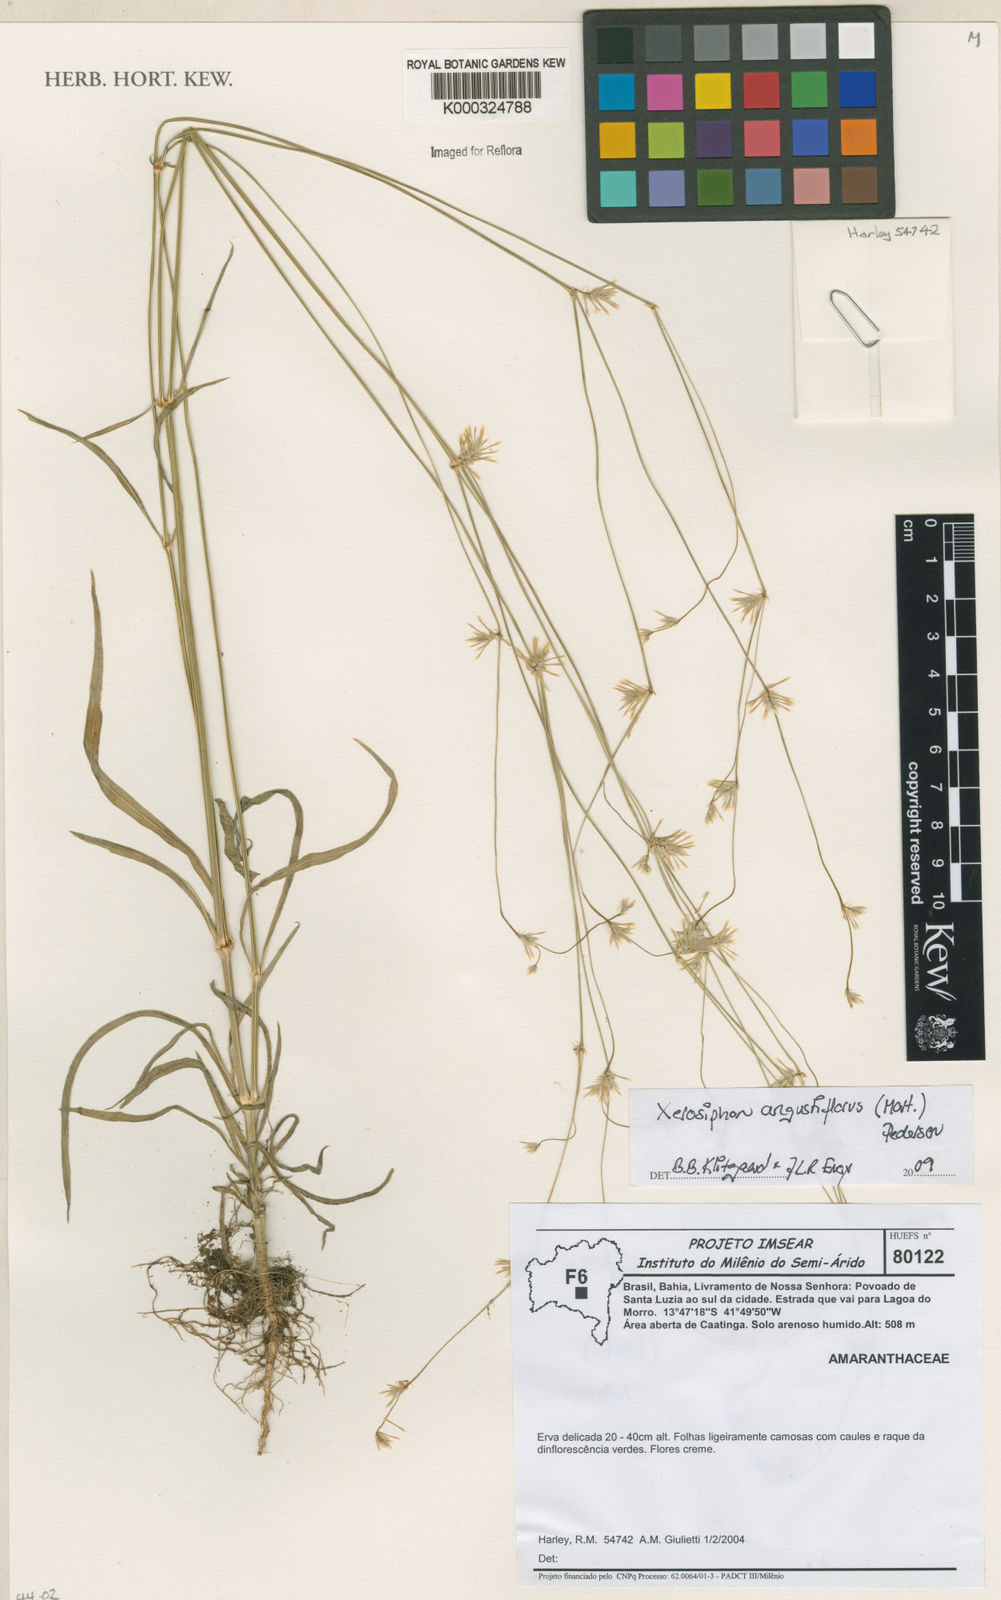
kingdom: Plantae
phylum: Tracheophyta
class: Magnoliopsida
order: Caryophyllales
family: Amaranthaceae
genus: Gomphrena
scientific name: Gomphrena angustiflora
